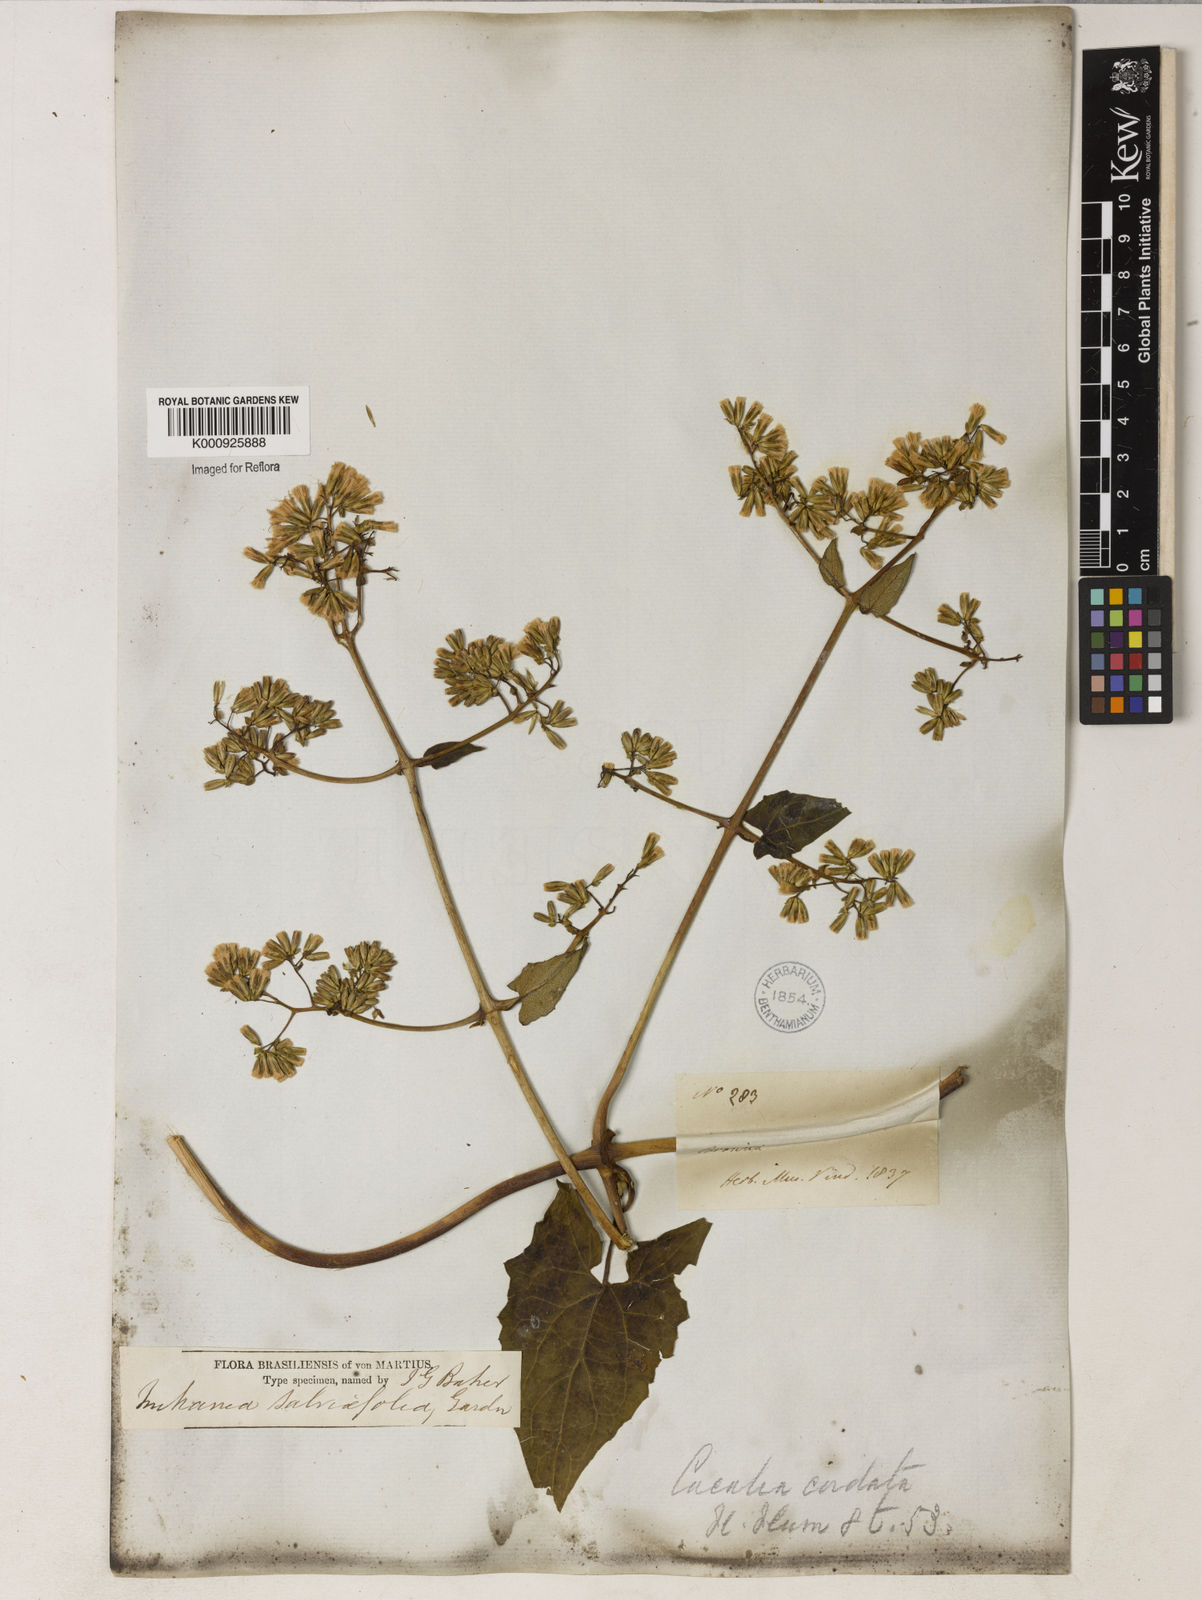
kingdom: Plantae
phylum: Tracheophyta
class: Magnoliopsida
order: Asterales
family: Asteraceae
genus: Mikania
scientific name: Mikania
